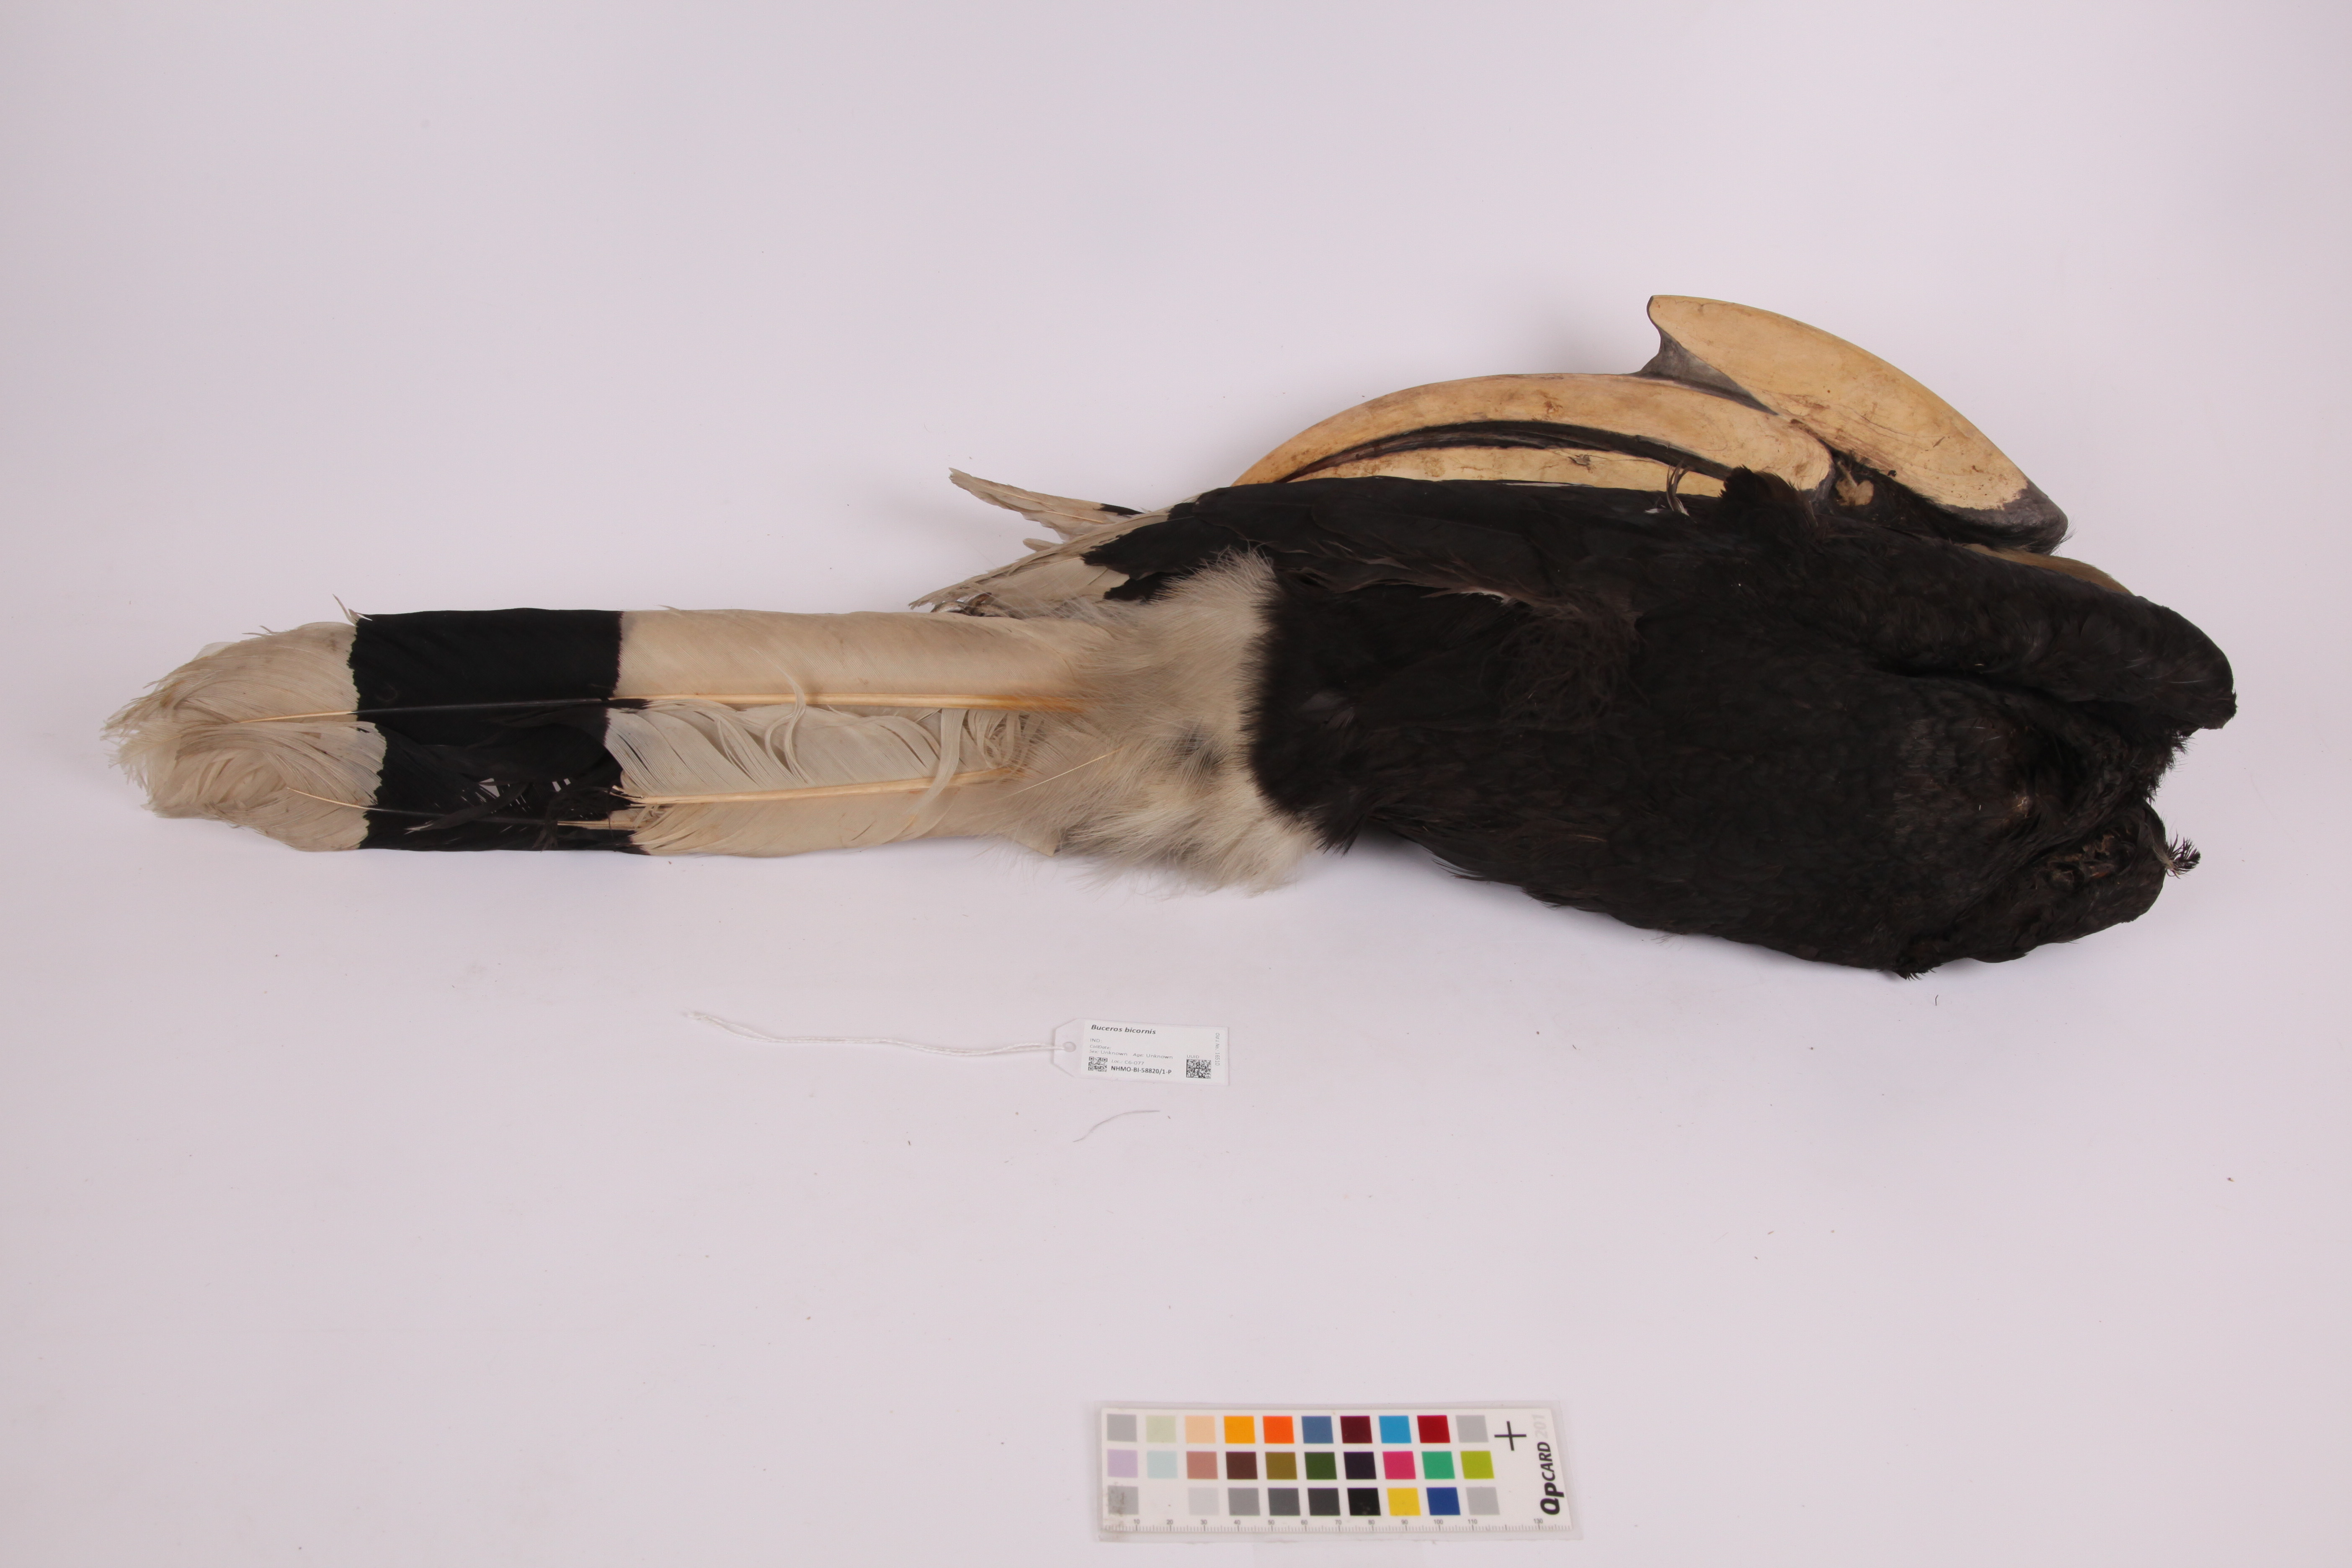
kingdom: Animalia
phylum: Chordata
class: Aves
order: Bucerotiformes
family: Bucerotidae
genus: Buceros
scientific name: Buceros bicornis
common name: Great hornbill
